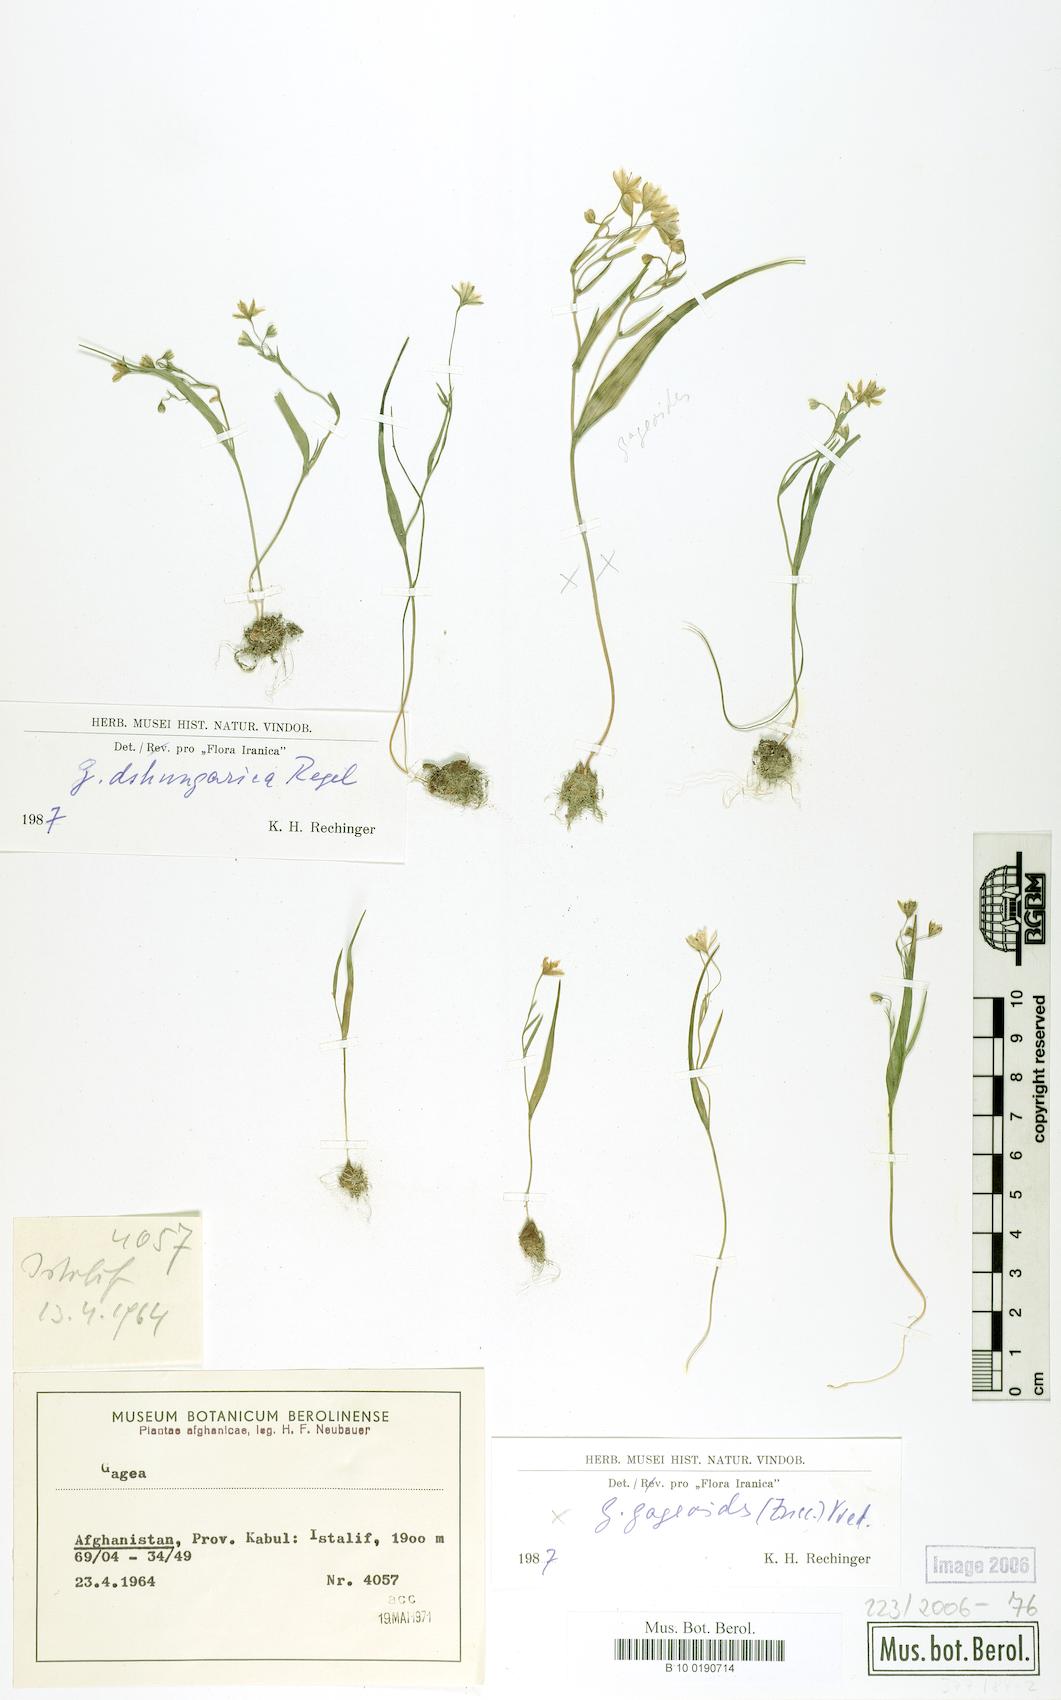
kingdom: Plantae
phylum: Tracheophyta
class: Liliopsida
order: Liliales
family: Liliaceae
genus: Gagea
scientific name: Gagea dschungarica
